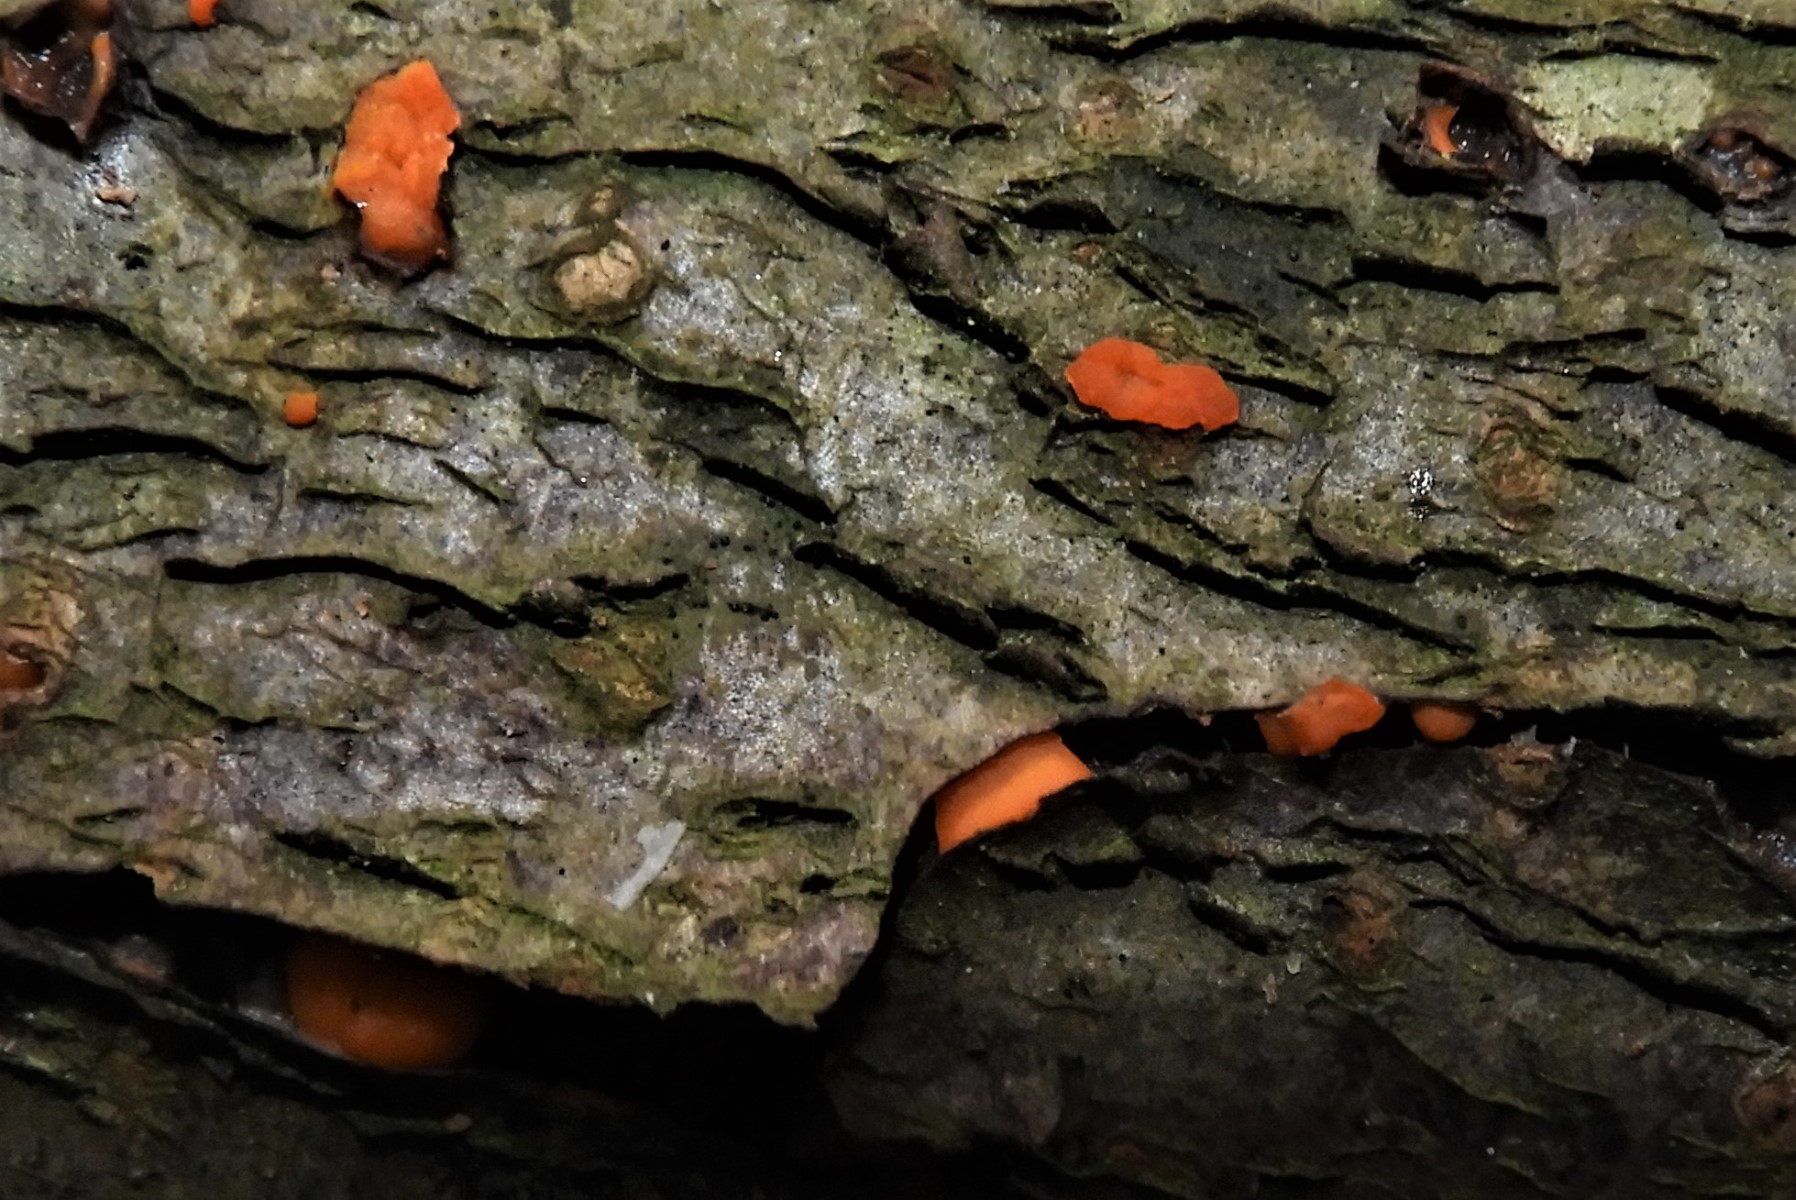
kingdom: Fungi
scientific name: Fungi
